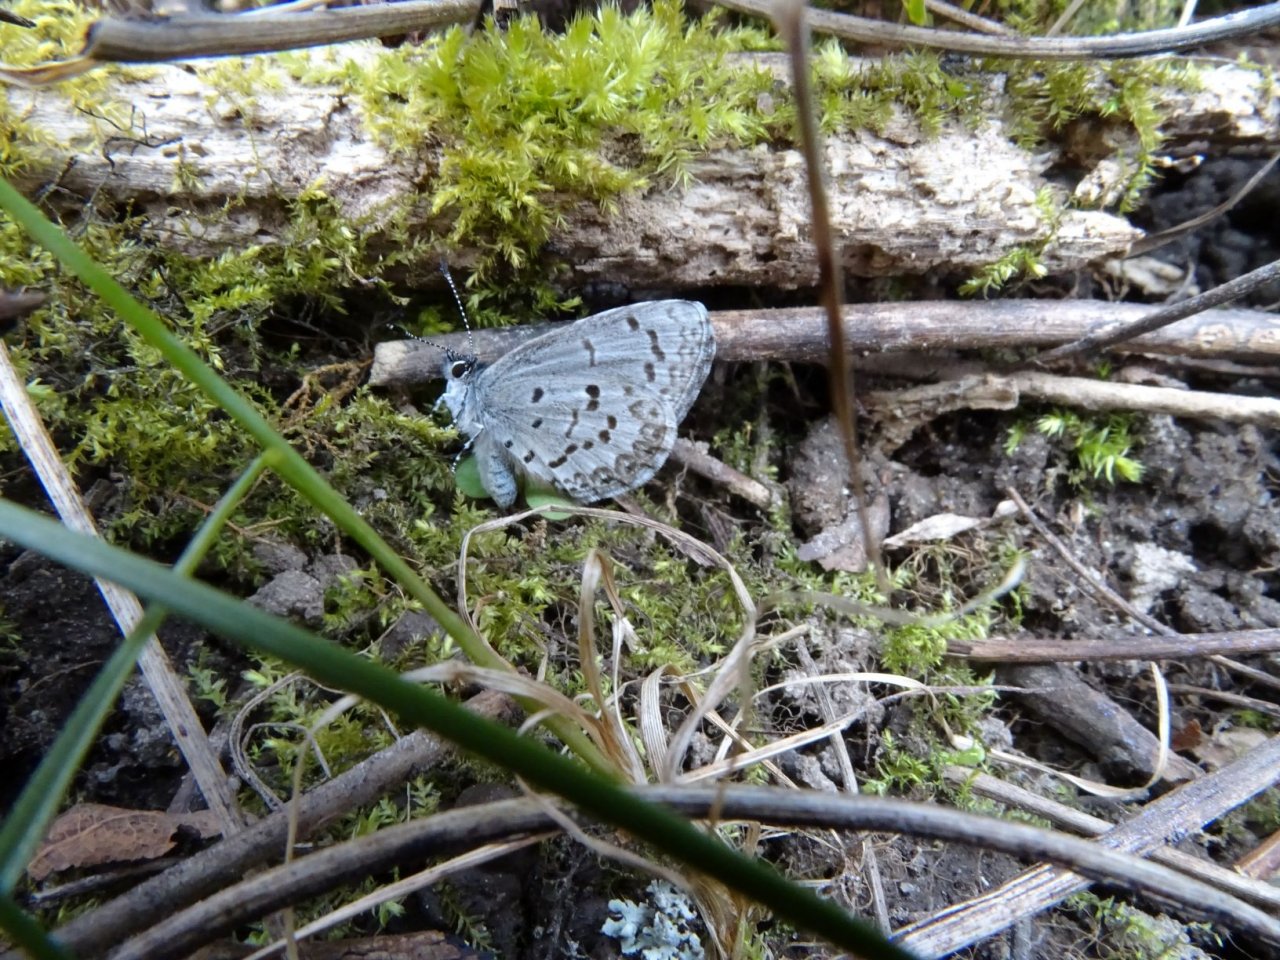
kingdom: Animalia
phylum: Arthropoda
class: Insecta
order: Lepidoptera
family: Lycaenidae
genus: Celastrina
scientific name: Celastrina lucia
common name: Northern Spring Azure
